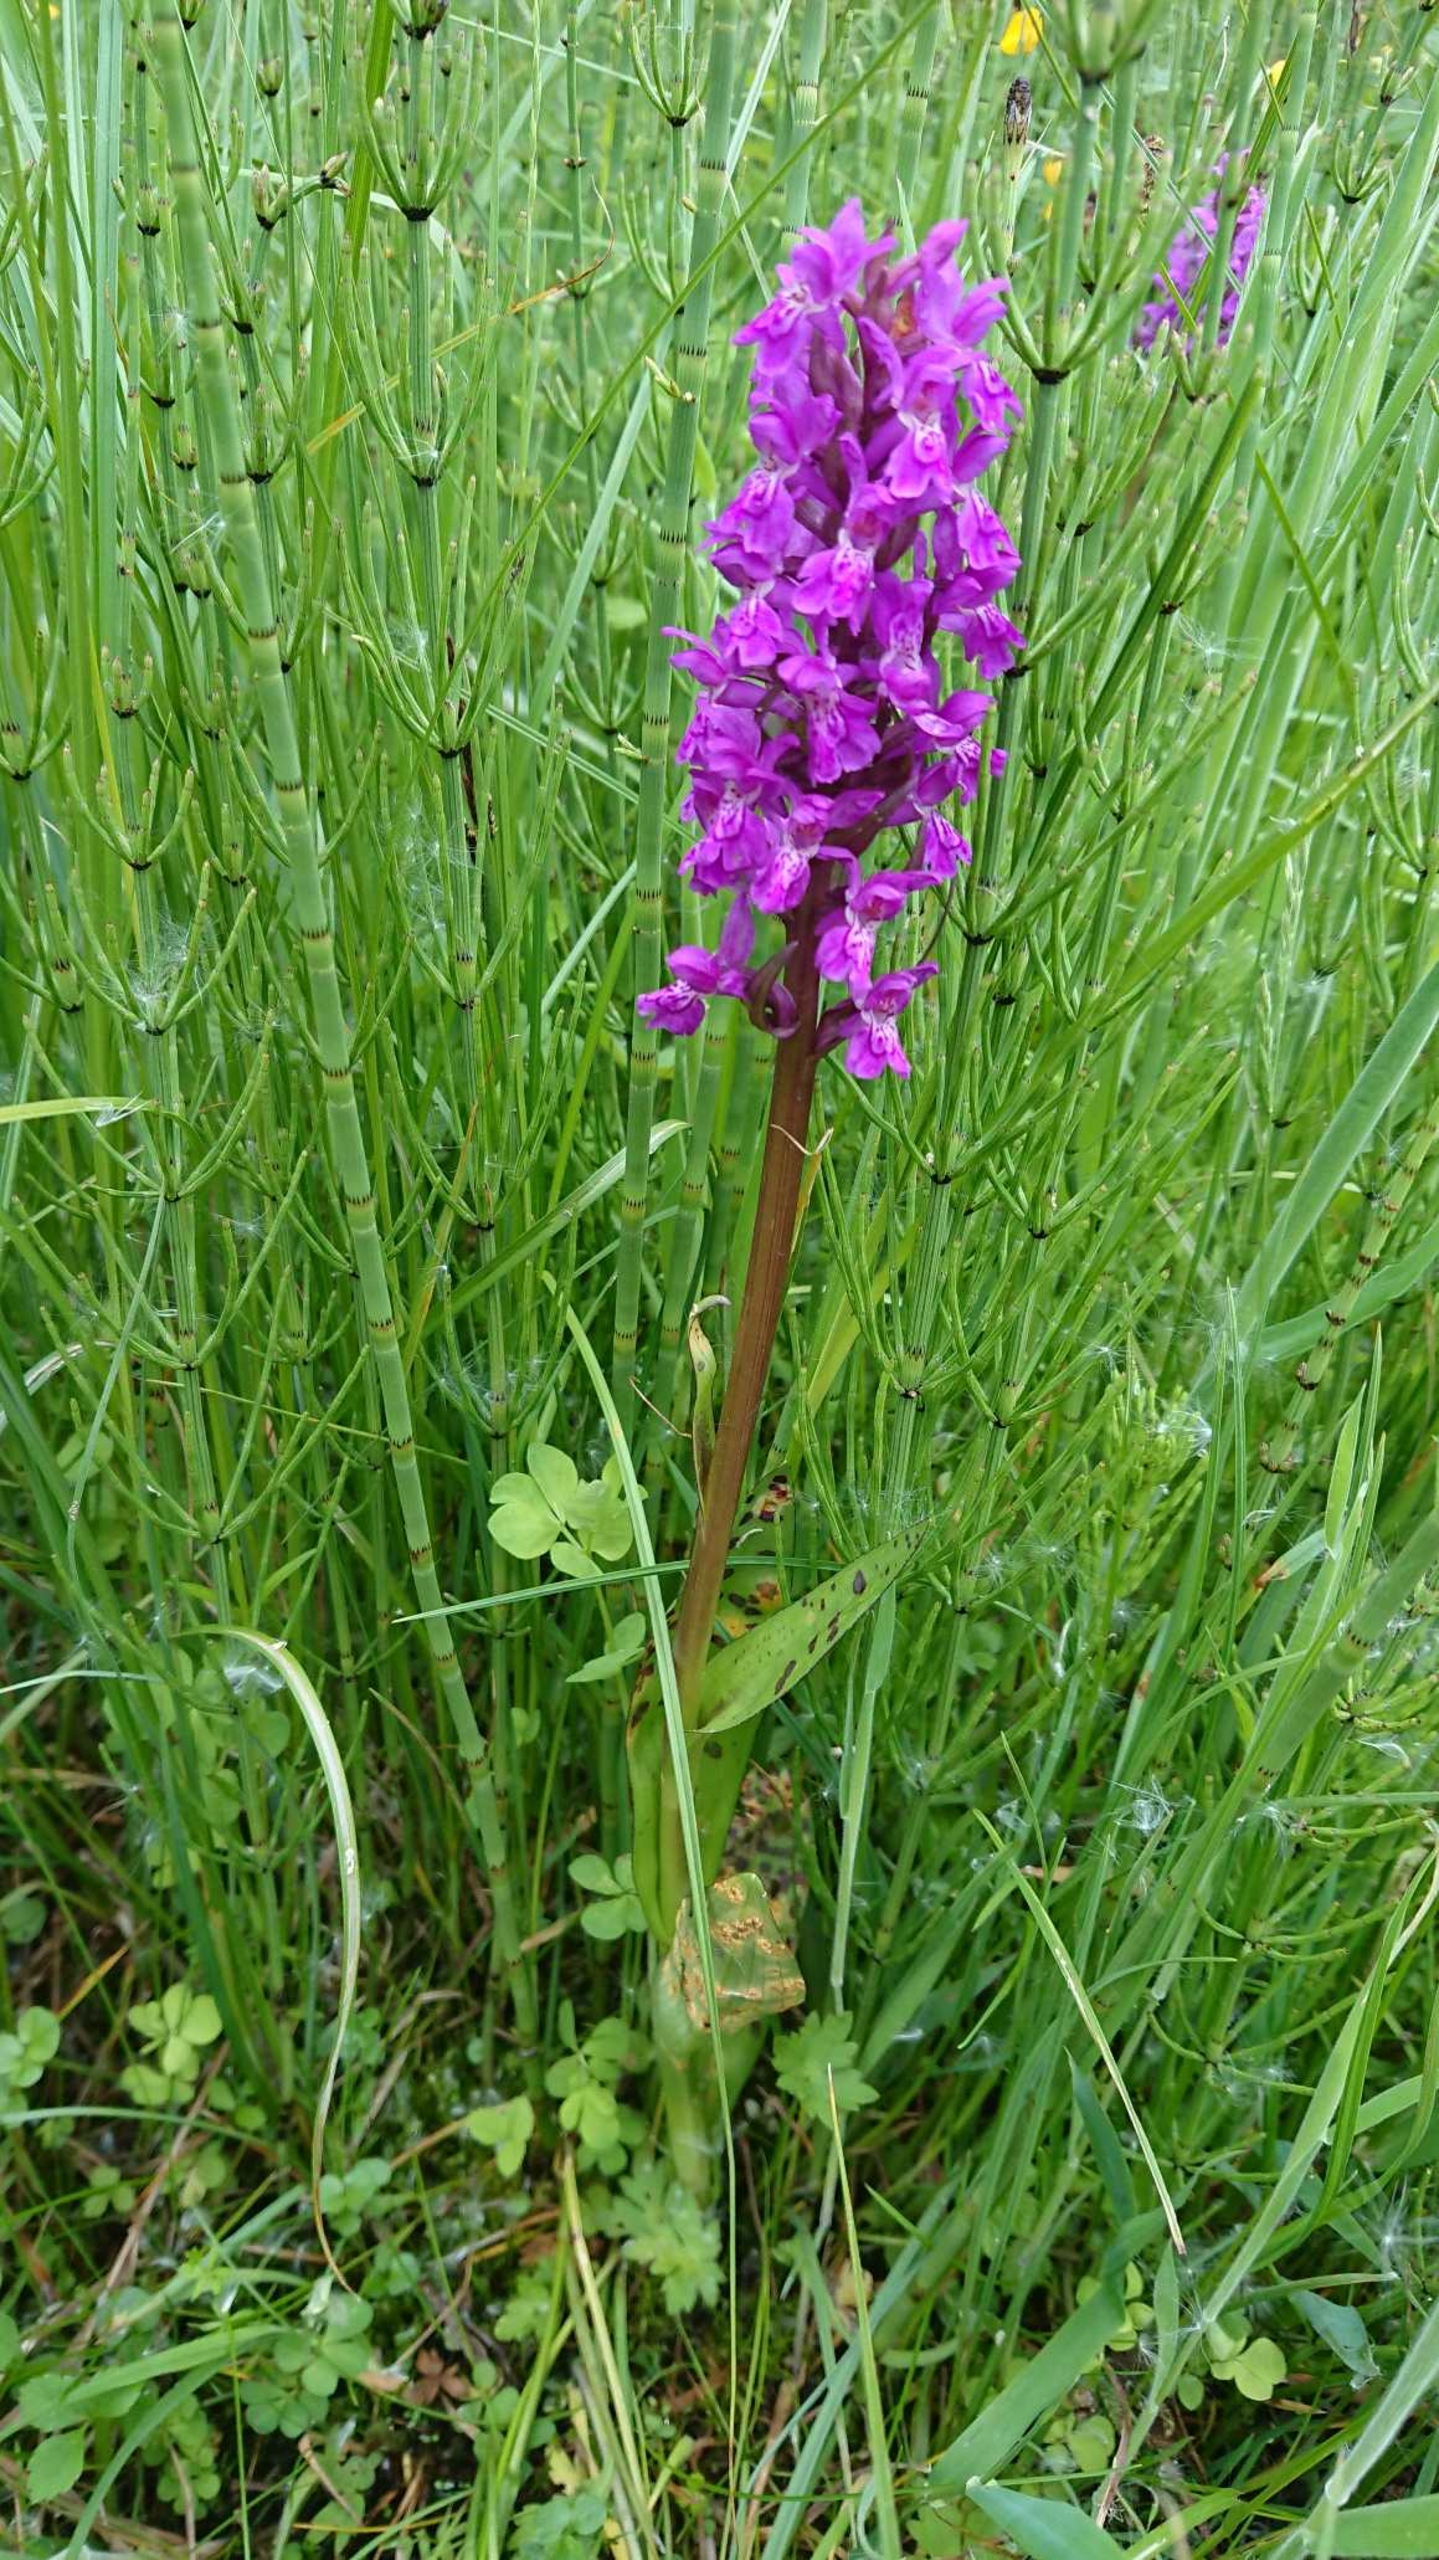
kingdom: Plantae
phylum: Tracheophyta
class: Liliopsida
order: Asparagales
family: Orchidaceae
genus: Dactylorhiza
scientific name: Dactylorhiza majalis
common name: Maj-gøgeurt (underart)
